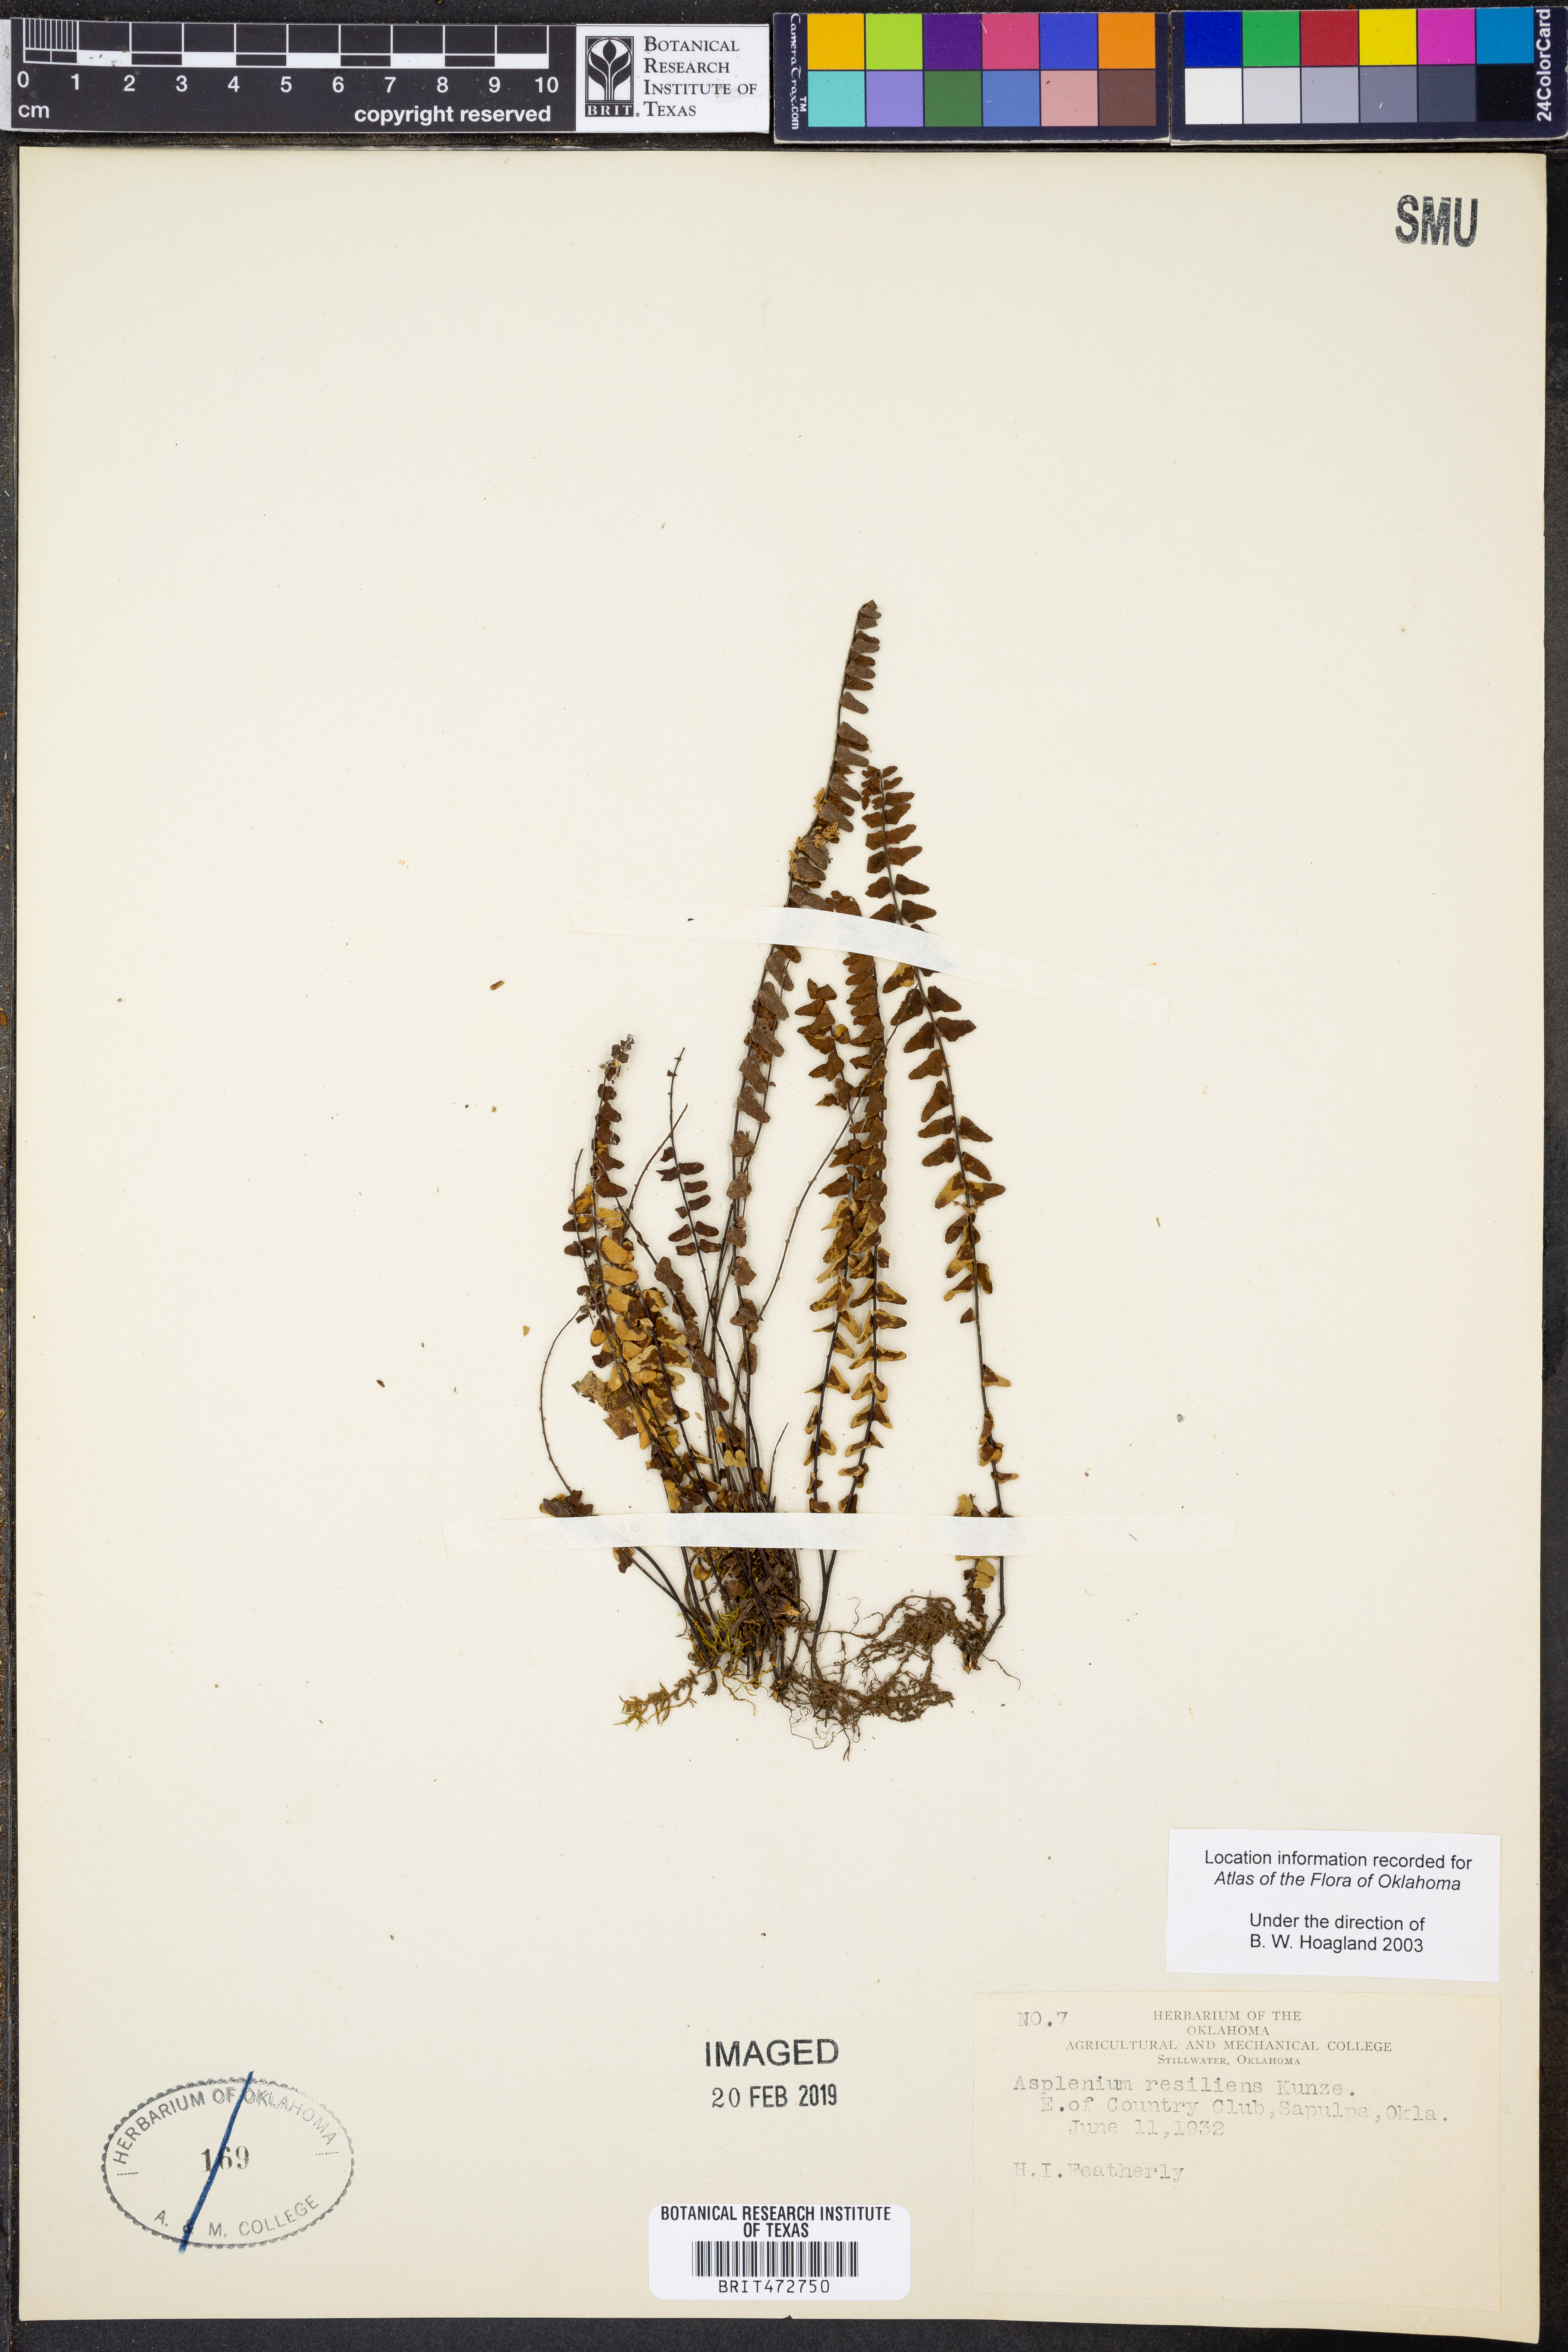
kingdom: Plantae
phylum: Tracheophyta
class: Polypodiopsida
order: Polypodiales
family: Aspleniaceae
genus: Asplenium
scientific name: Asplenium resiliens
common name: Blackstem spleenwort
